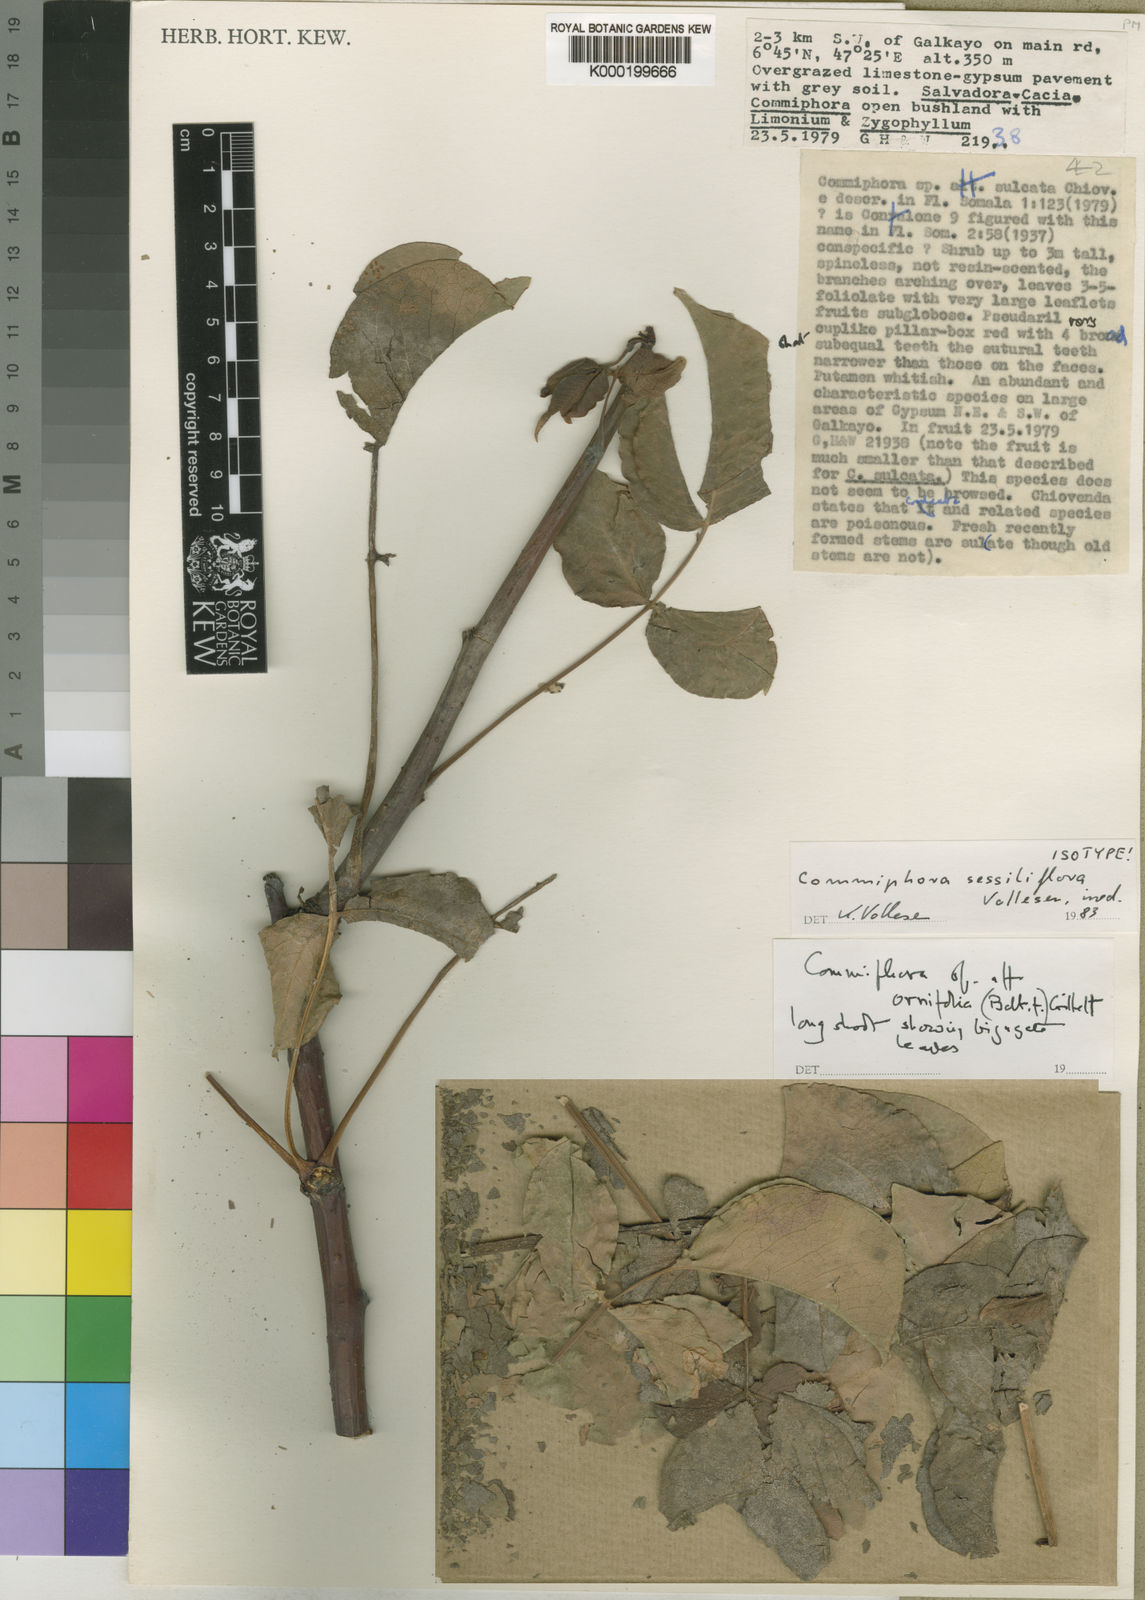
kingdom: Plantae
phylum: Tracheophyta
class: Magnoliopsida
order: Sapindales
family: Burseraceae
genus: Commiphora
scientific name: Commiphora
